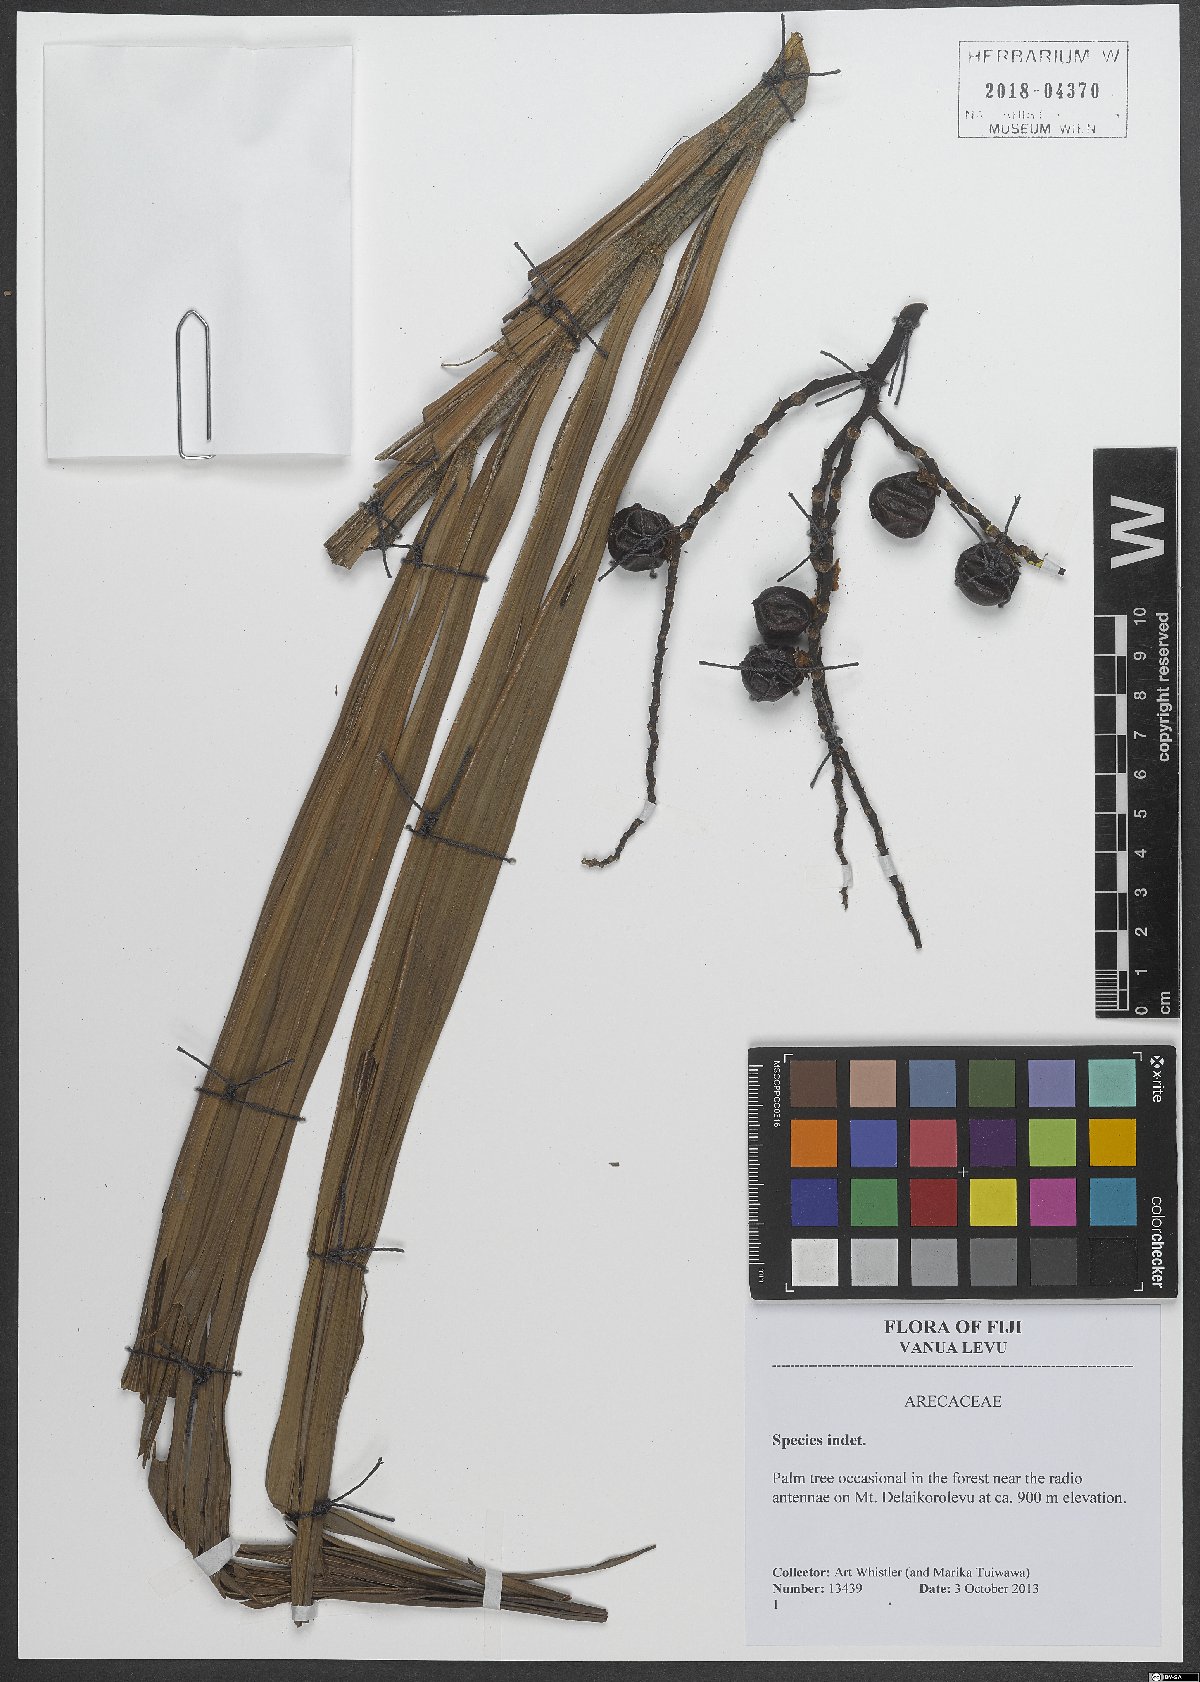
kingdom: Plantae
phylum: Tracheophyta
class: Liliopsida
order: Arecales
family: Arecaceae
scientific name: Arecaceae
